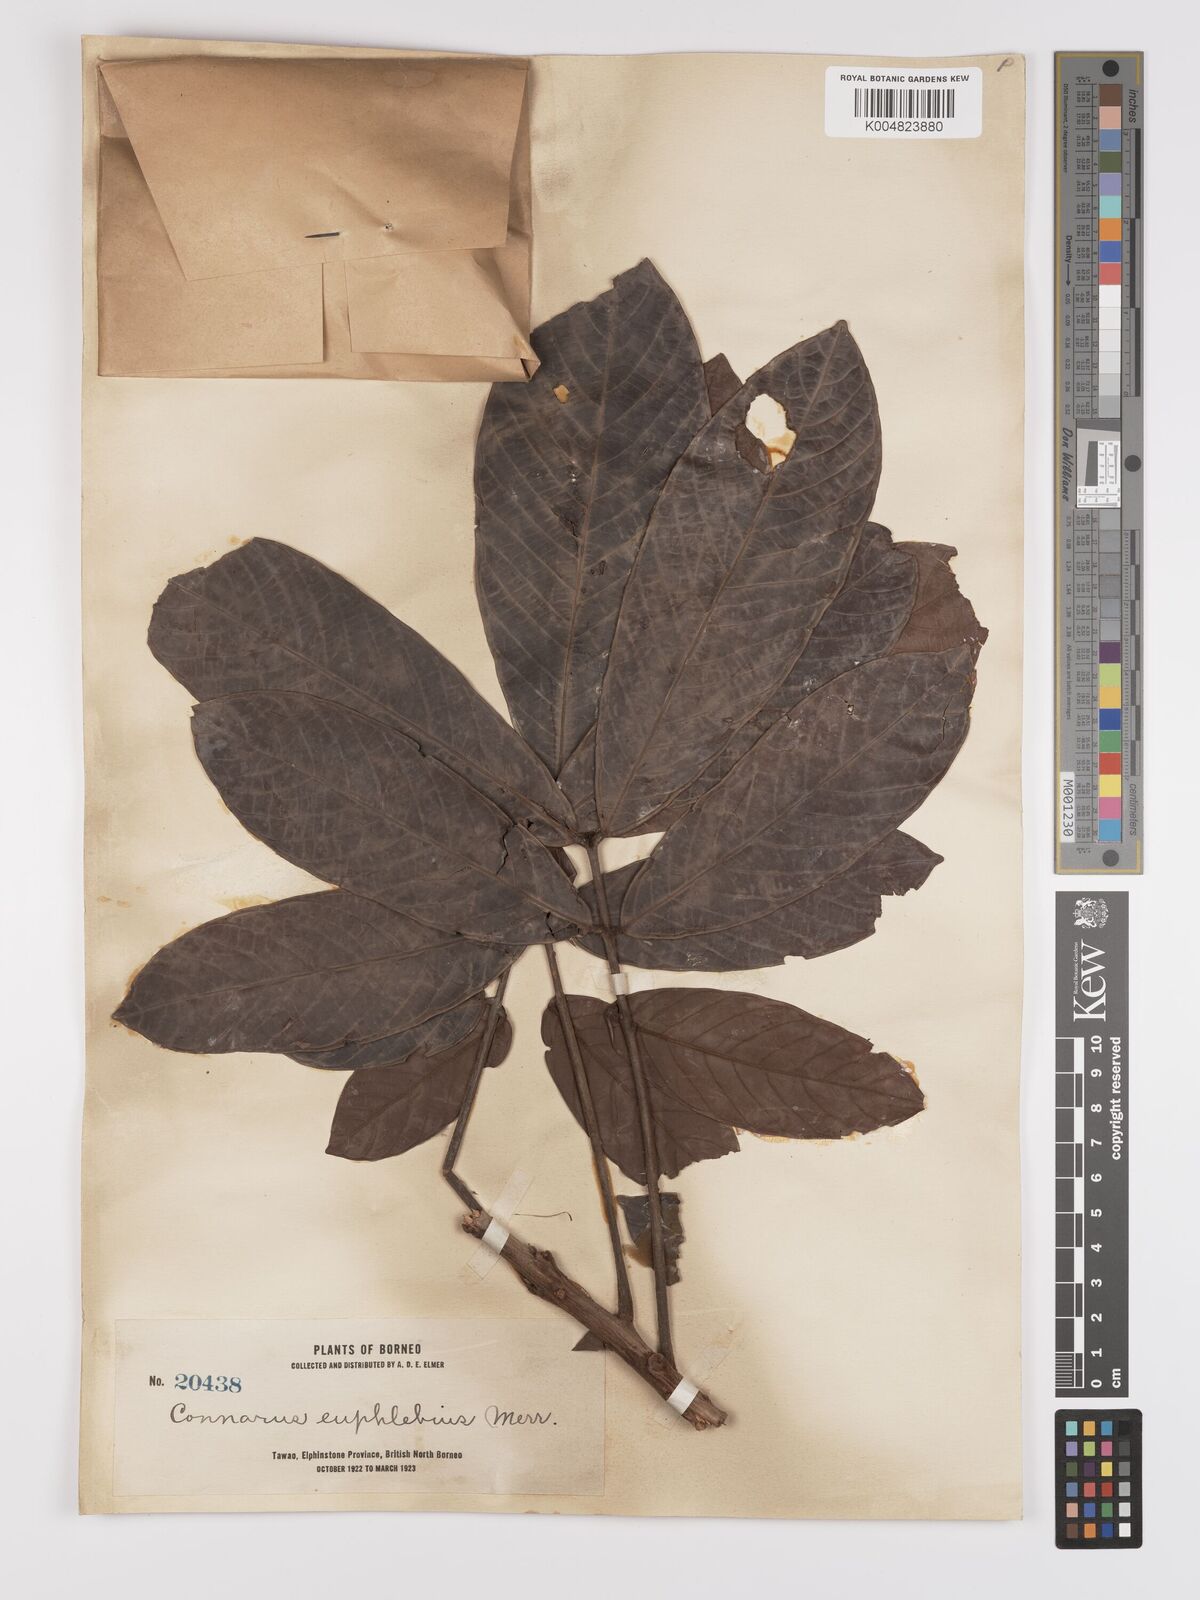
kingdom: Plantae
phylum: Tracheophyta
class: Magnoliopsida
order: Oxalidales
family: Connaraceae
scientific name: Connaraceae
